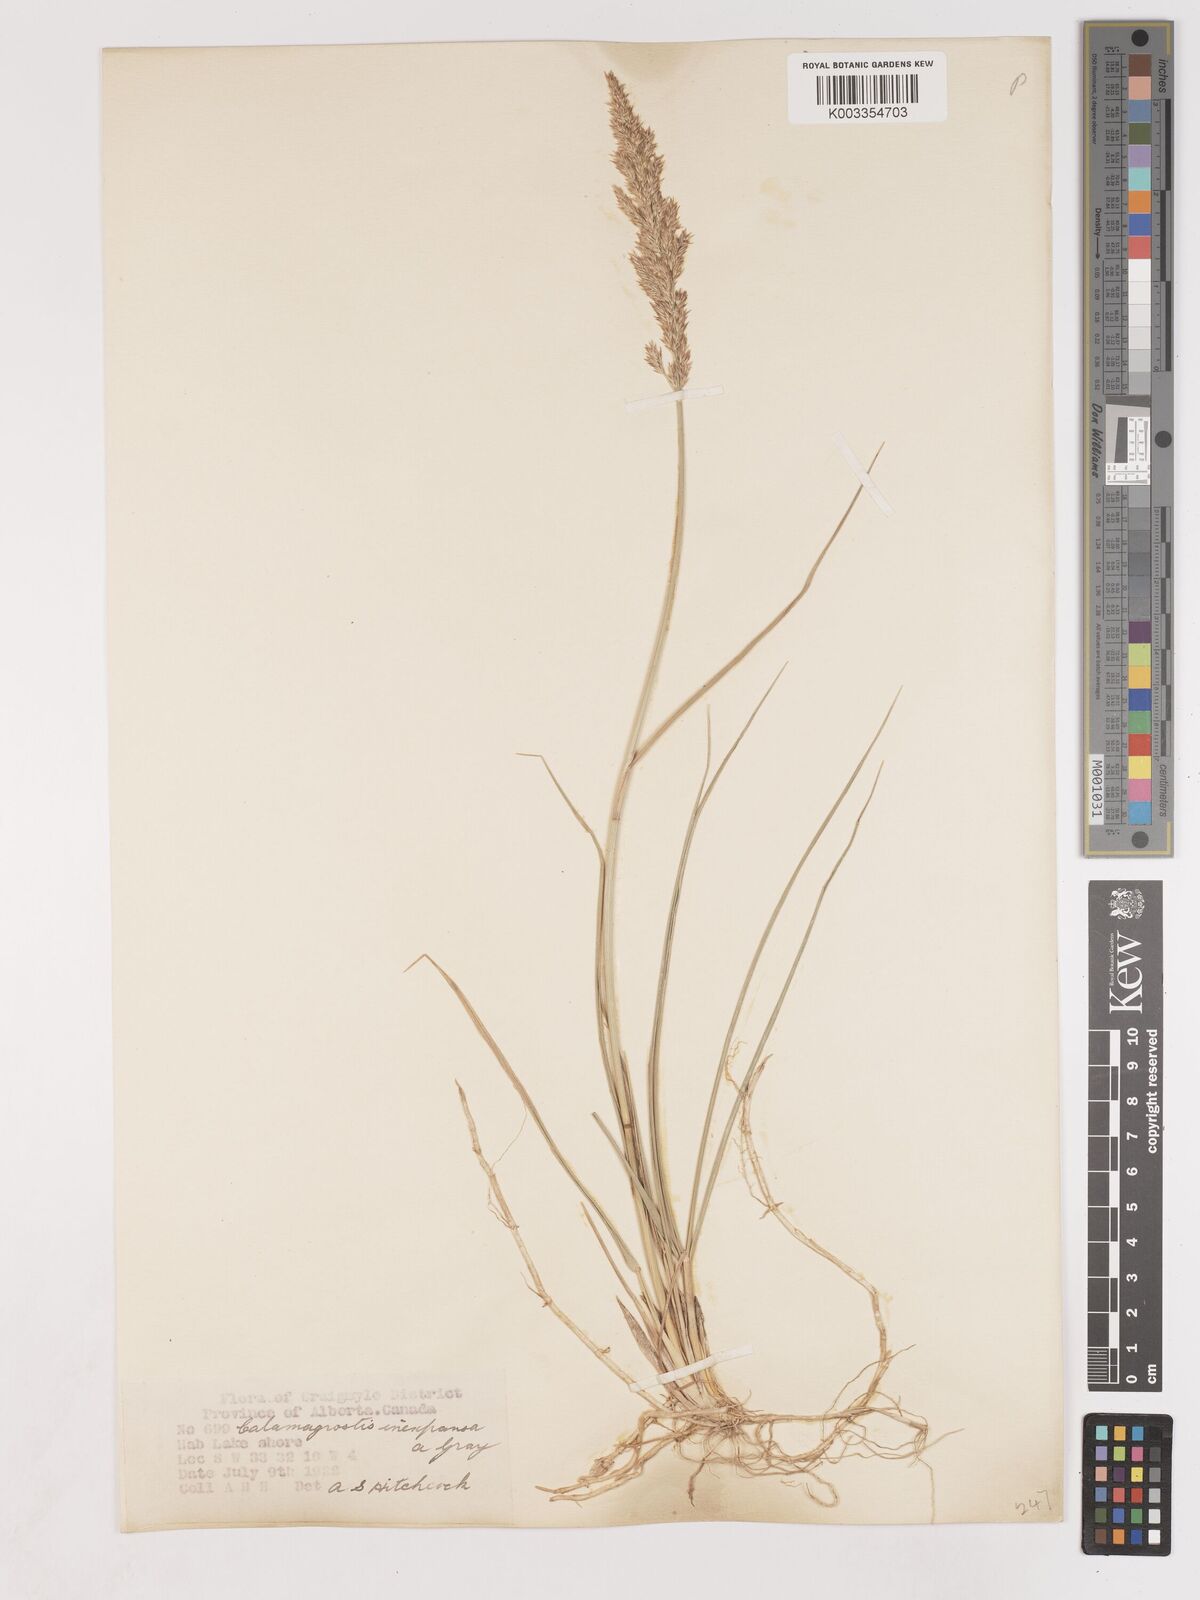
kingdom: Plantae
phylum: Tracheophyta
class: Liliopsida
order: Poales
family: Poaceae
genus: Cinnagrostis
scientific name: Cinnagrostis recta
